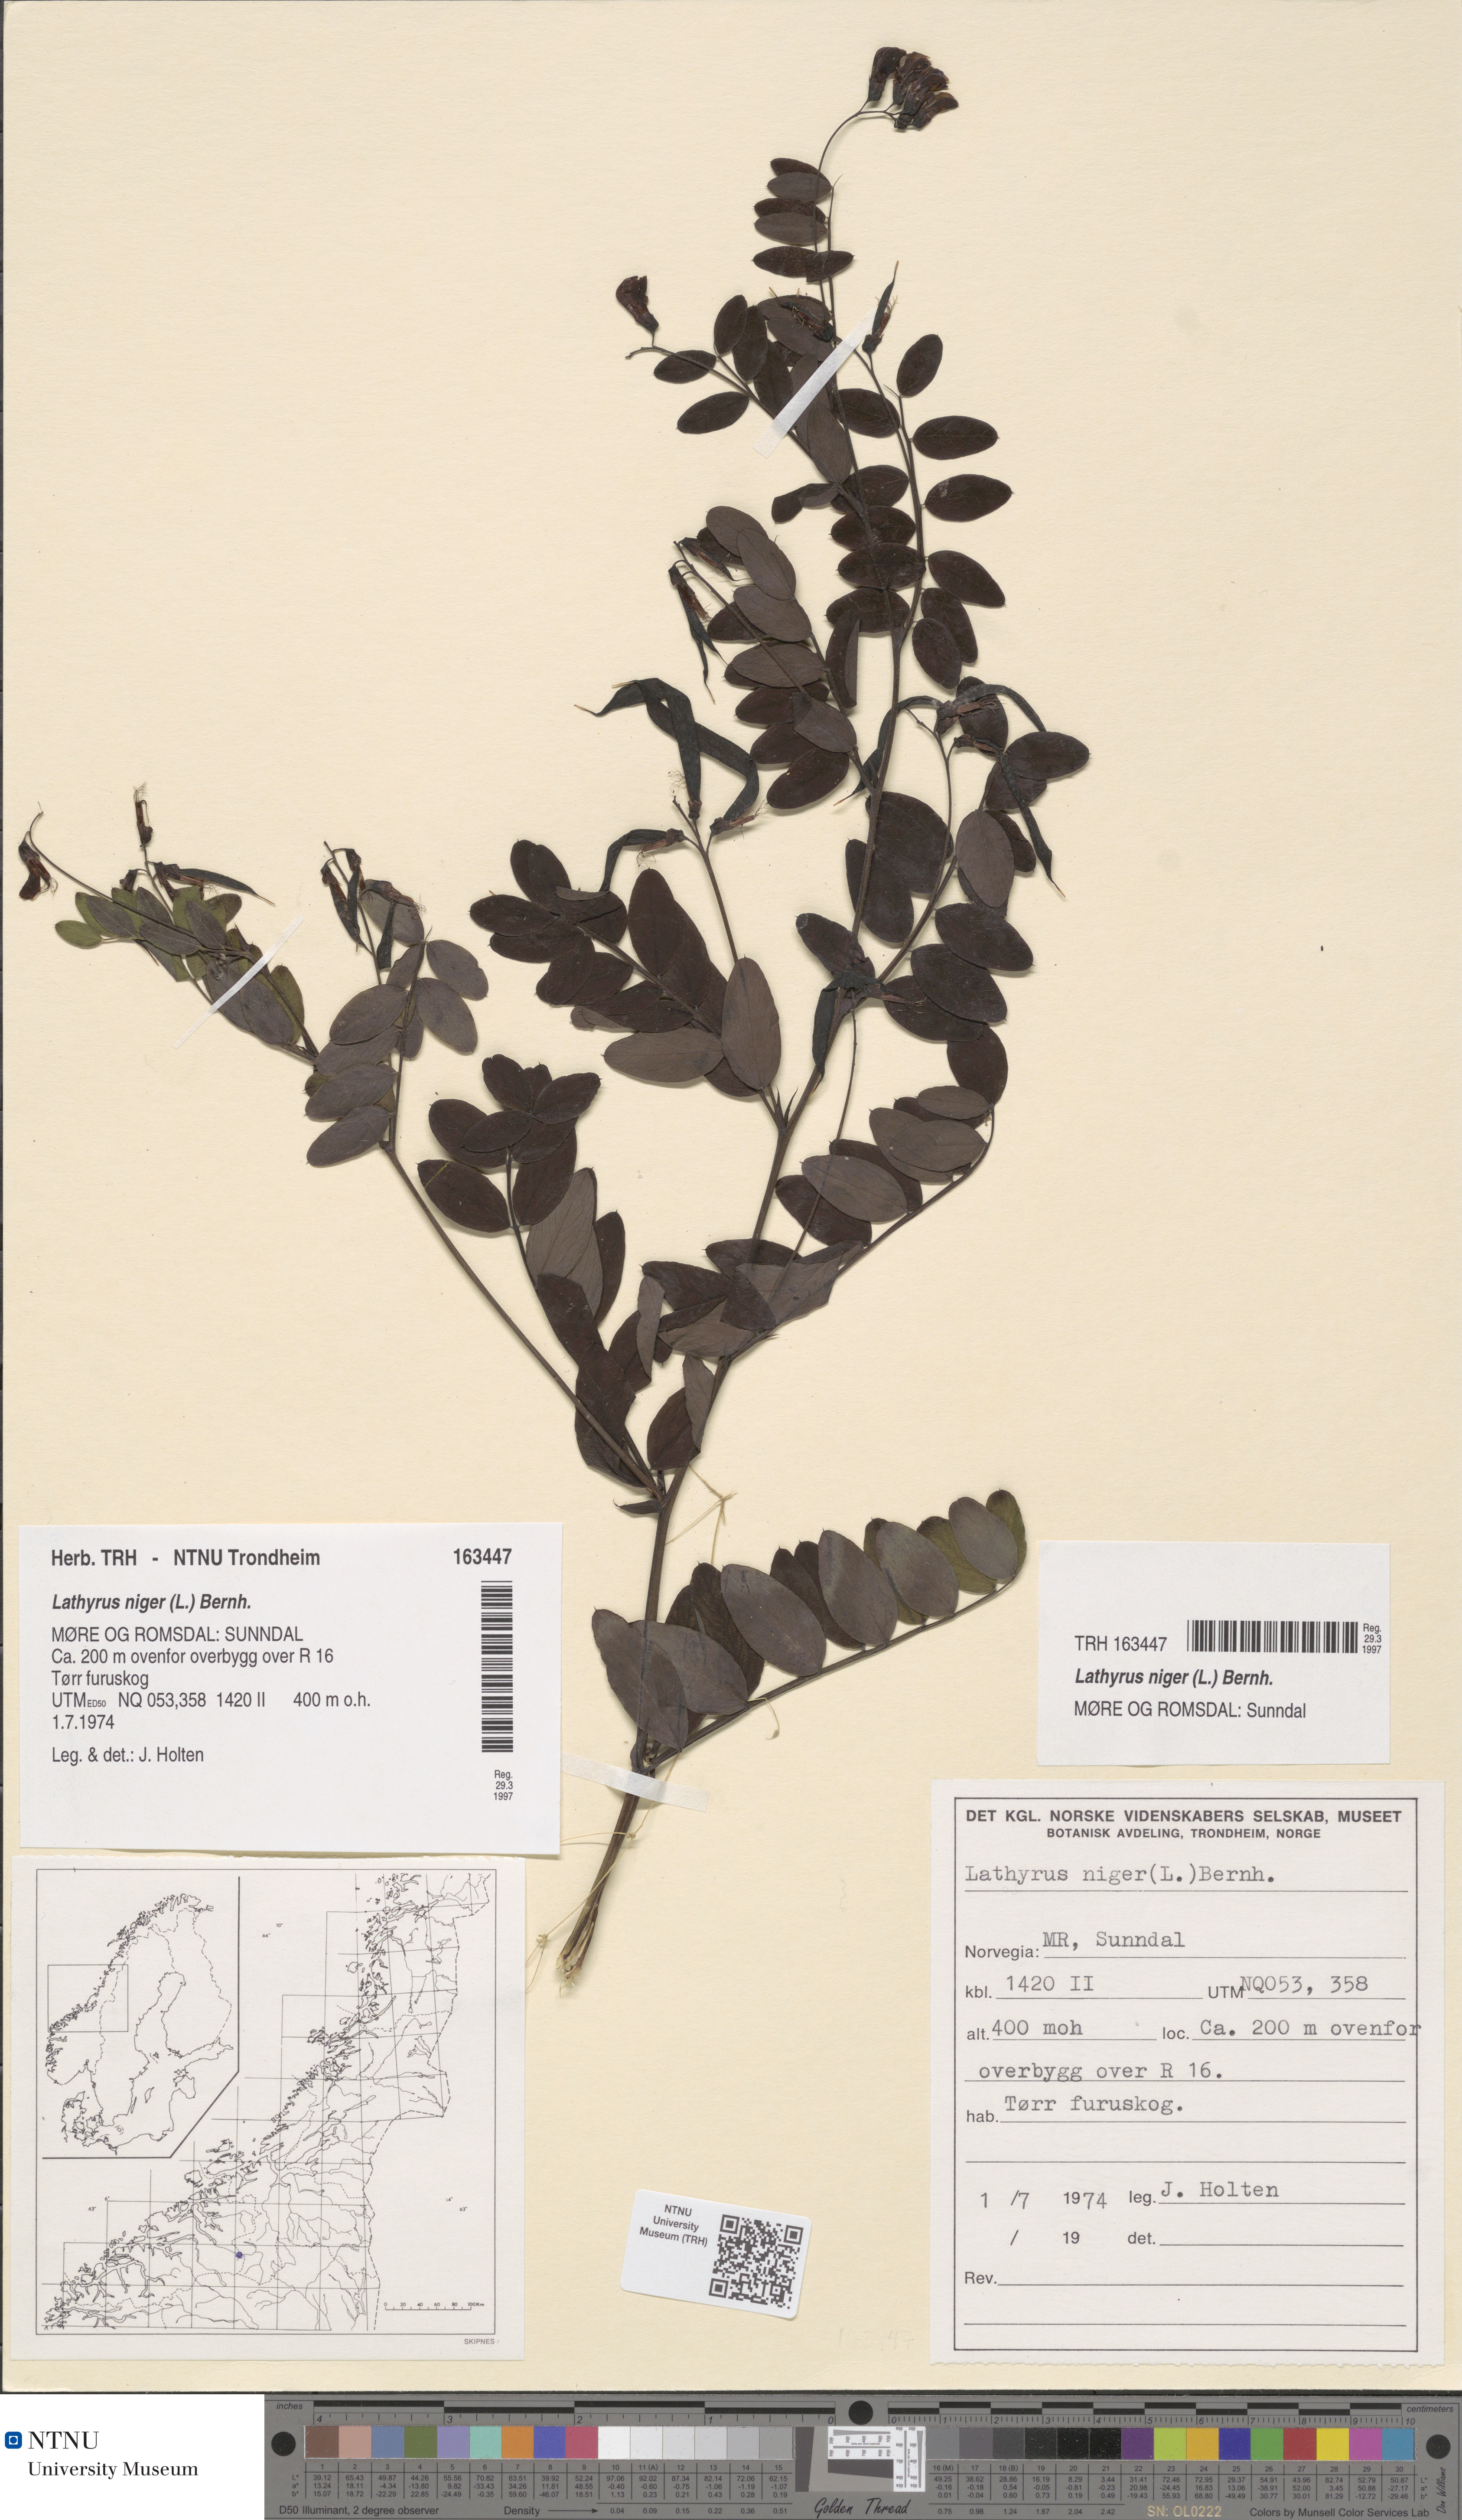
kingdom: Plantae
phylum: Tracheophyta
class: Magnoliopsida
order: Fabales
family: Fabaceae
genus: Lathyrus
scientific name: Lathyrus niger
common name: Black pea
